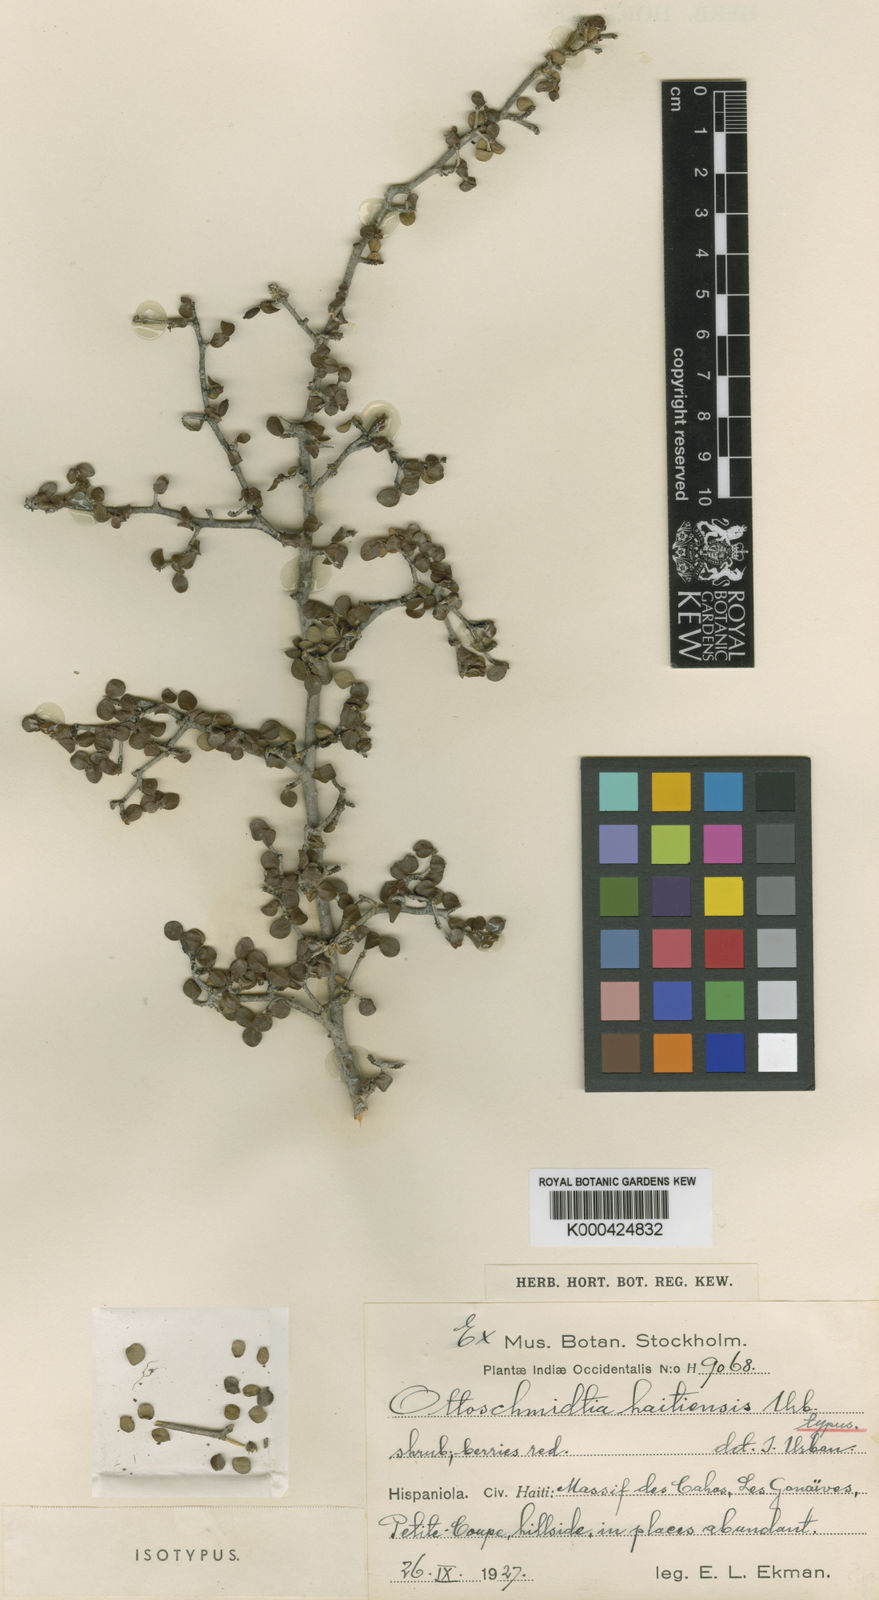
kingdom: Plantae
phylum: Tracheophyta
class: Magnoliopsida
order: Gentianales
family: Rubiaceae
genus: Ottoschmidtia
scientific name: Ottoschmidtia microphylla
